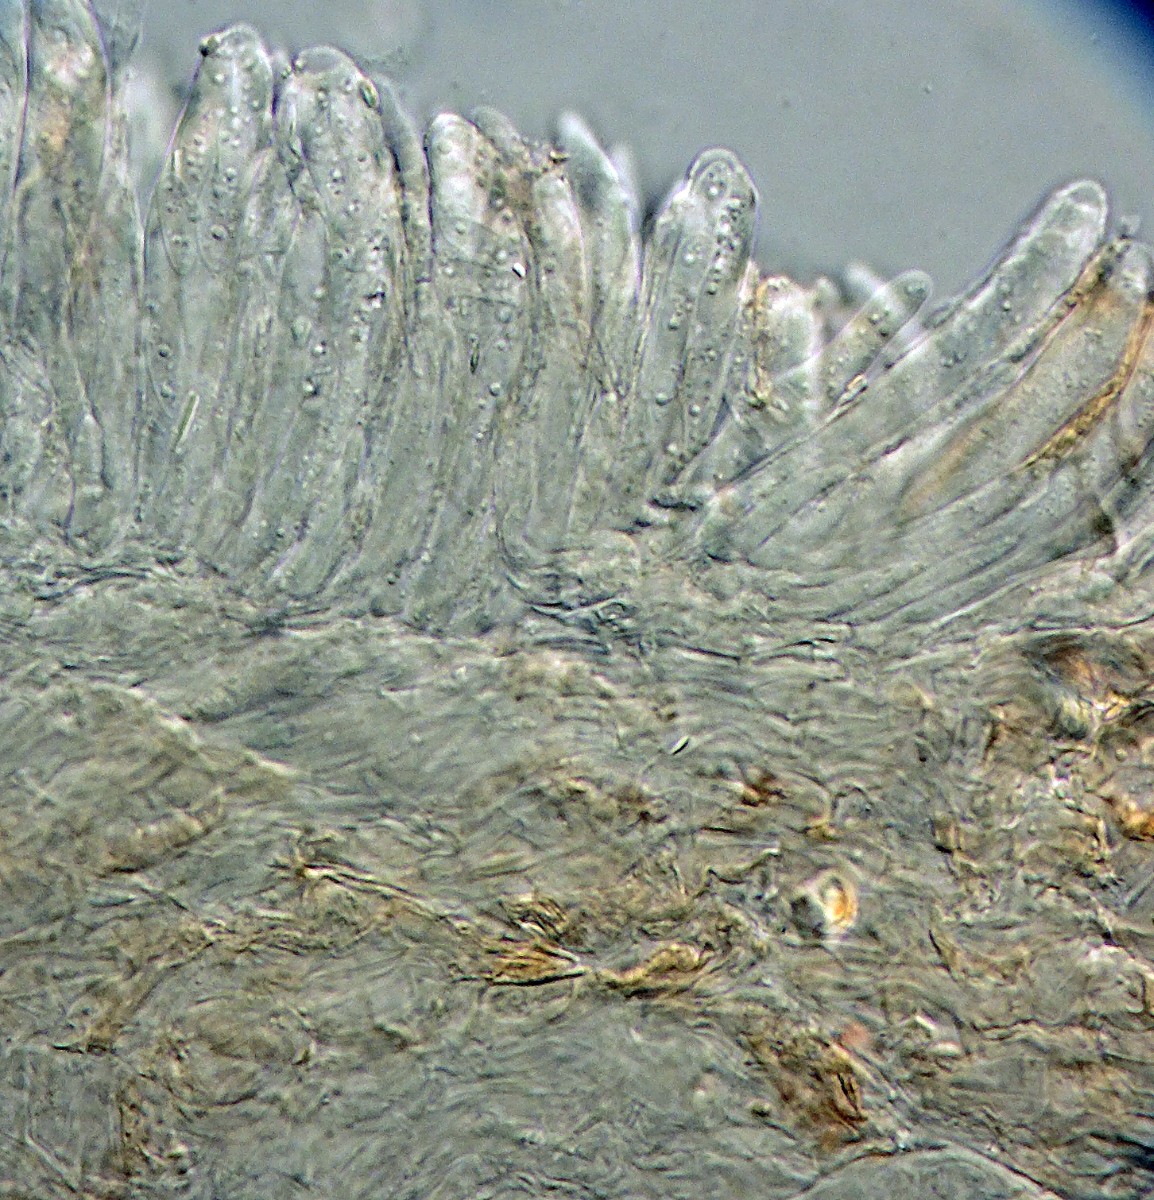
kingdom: Fungi
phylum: Ascomycota
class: Leotiomycetes
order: Helotiales
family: Helotiaceae
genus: Hymenoscyphus
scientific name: Hymenoscyphus repandus
